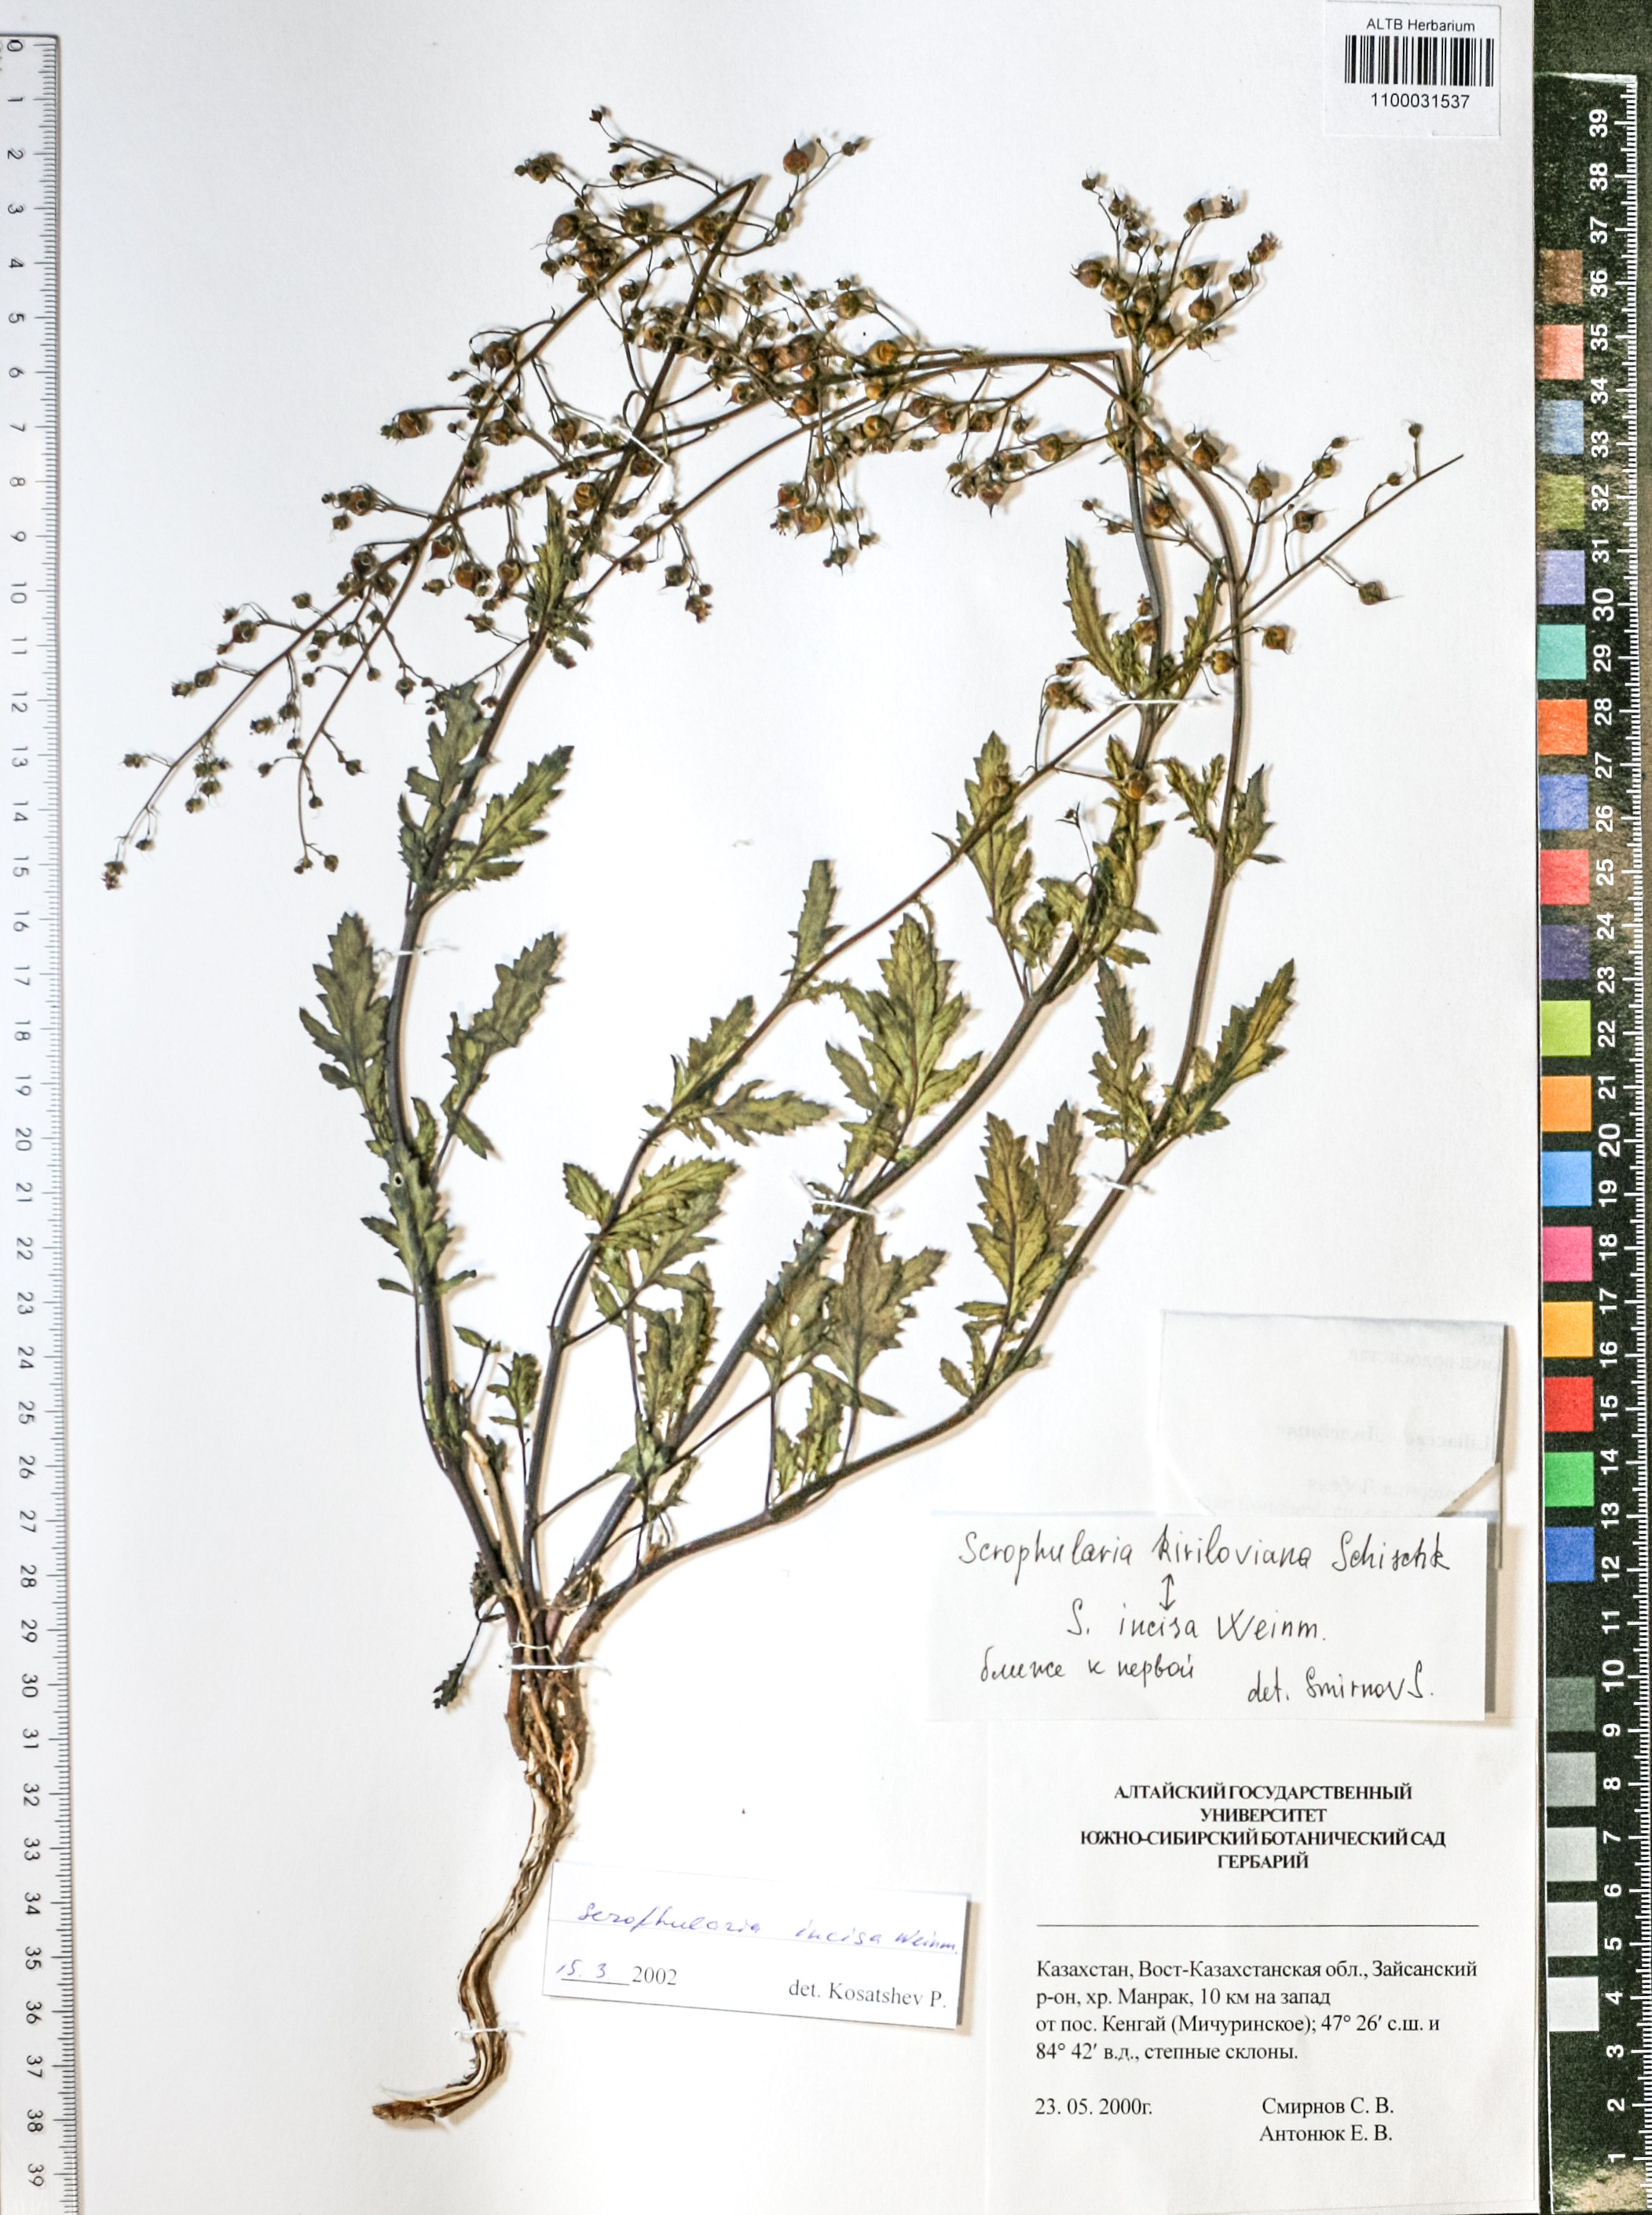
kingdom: Plantae
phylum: Tracheophyta
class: Magnoliopsida
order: Lamiales
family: Scrophulariaceae
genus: Scrophularia
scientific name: Scrophularia incisa
